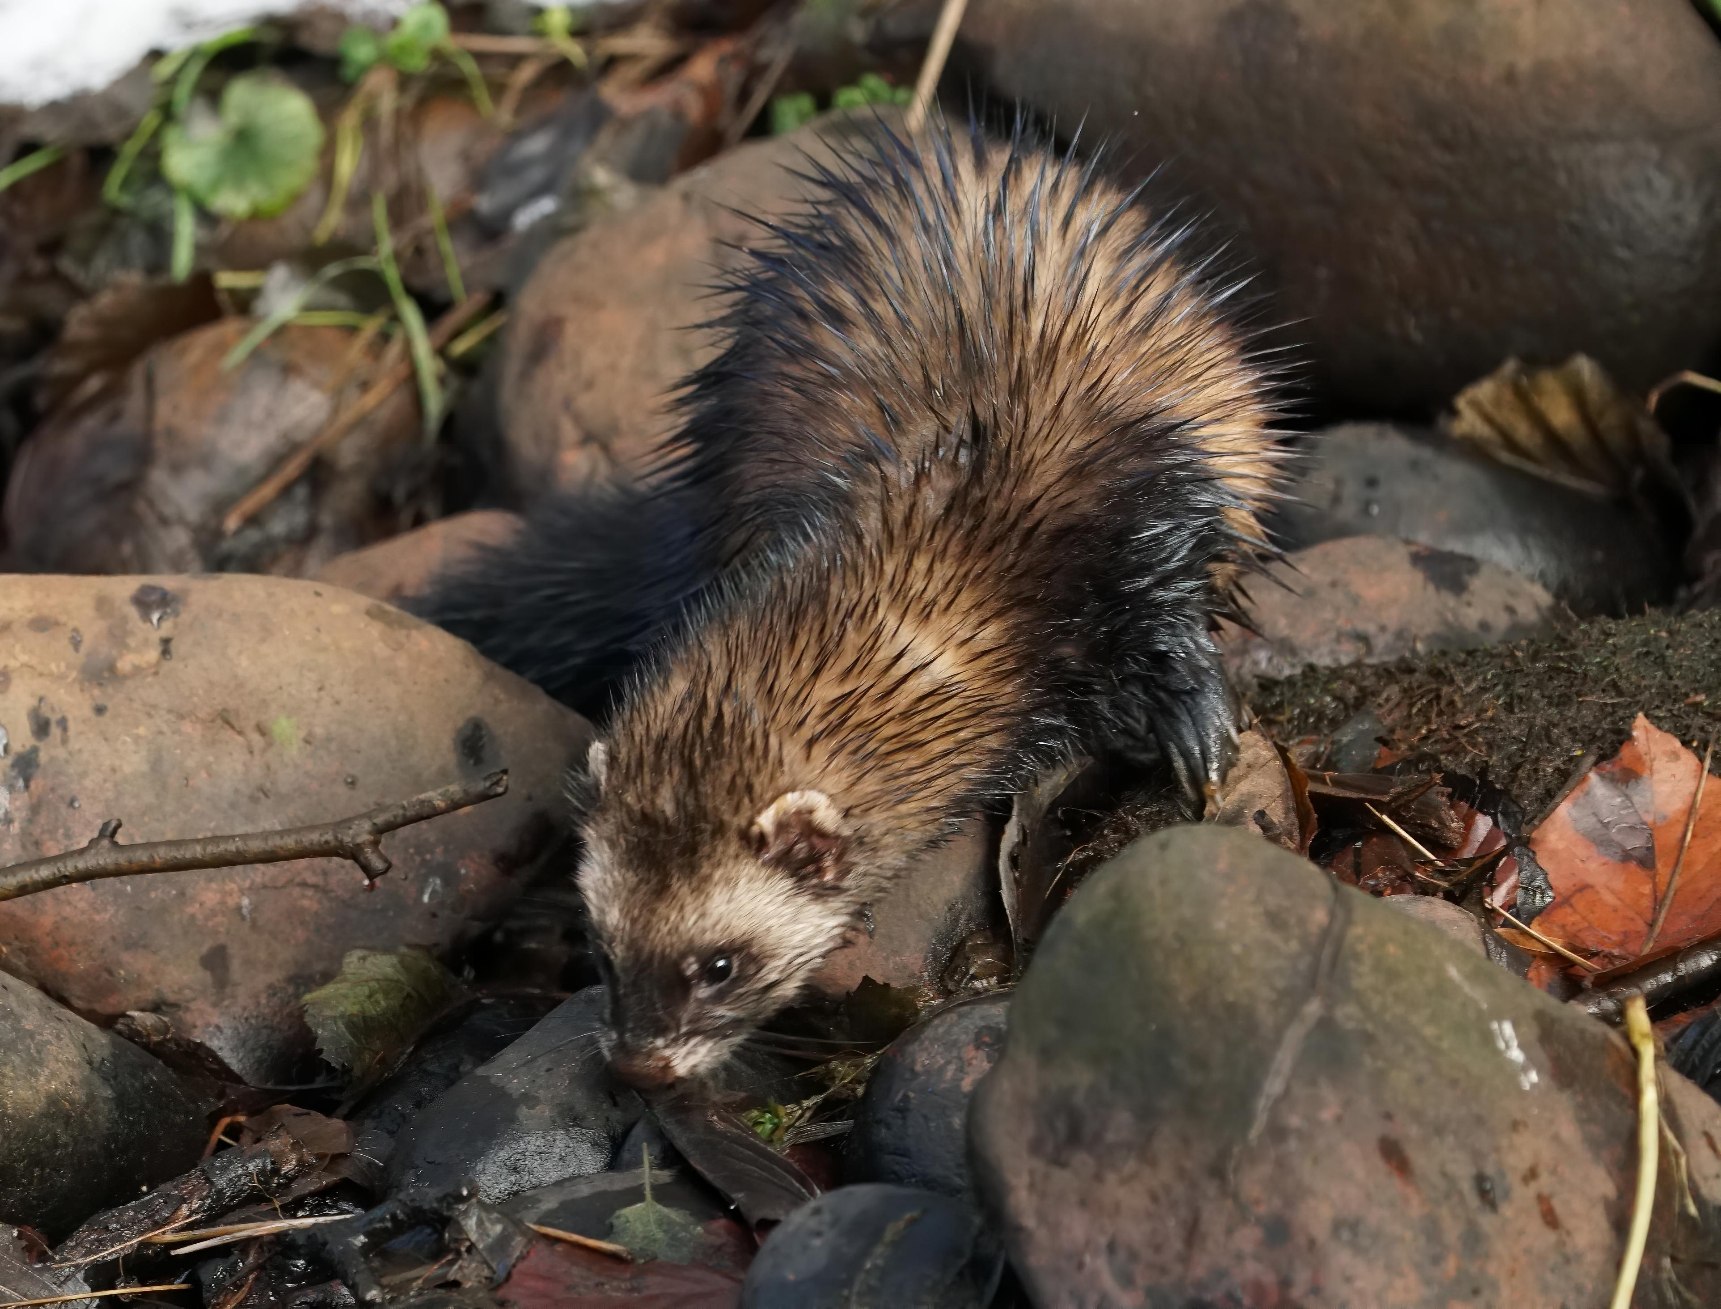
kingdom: Animalia
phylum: Chordata
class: Mammalia
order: Carnivora
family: Mustelidae
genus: Mustela
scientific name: Mustela putorius
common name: Ilder
